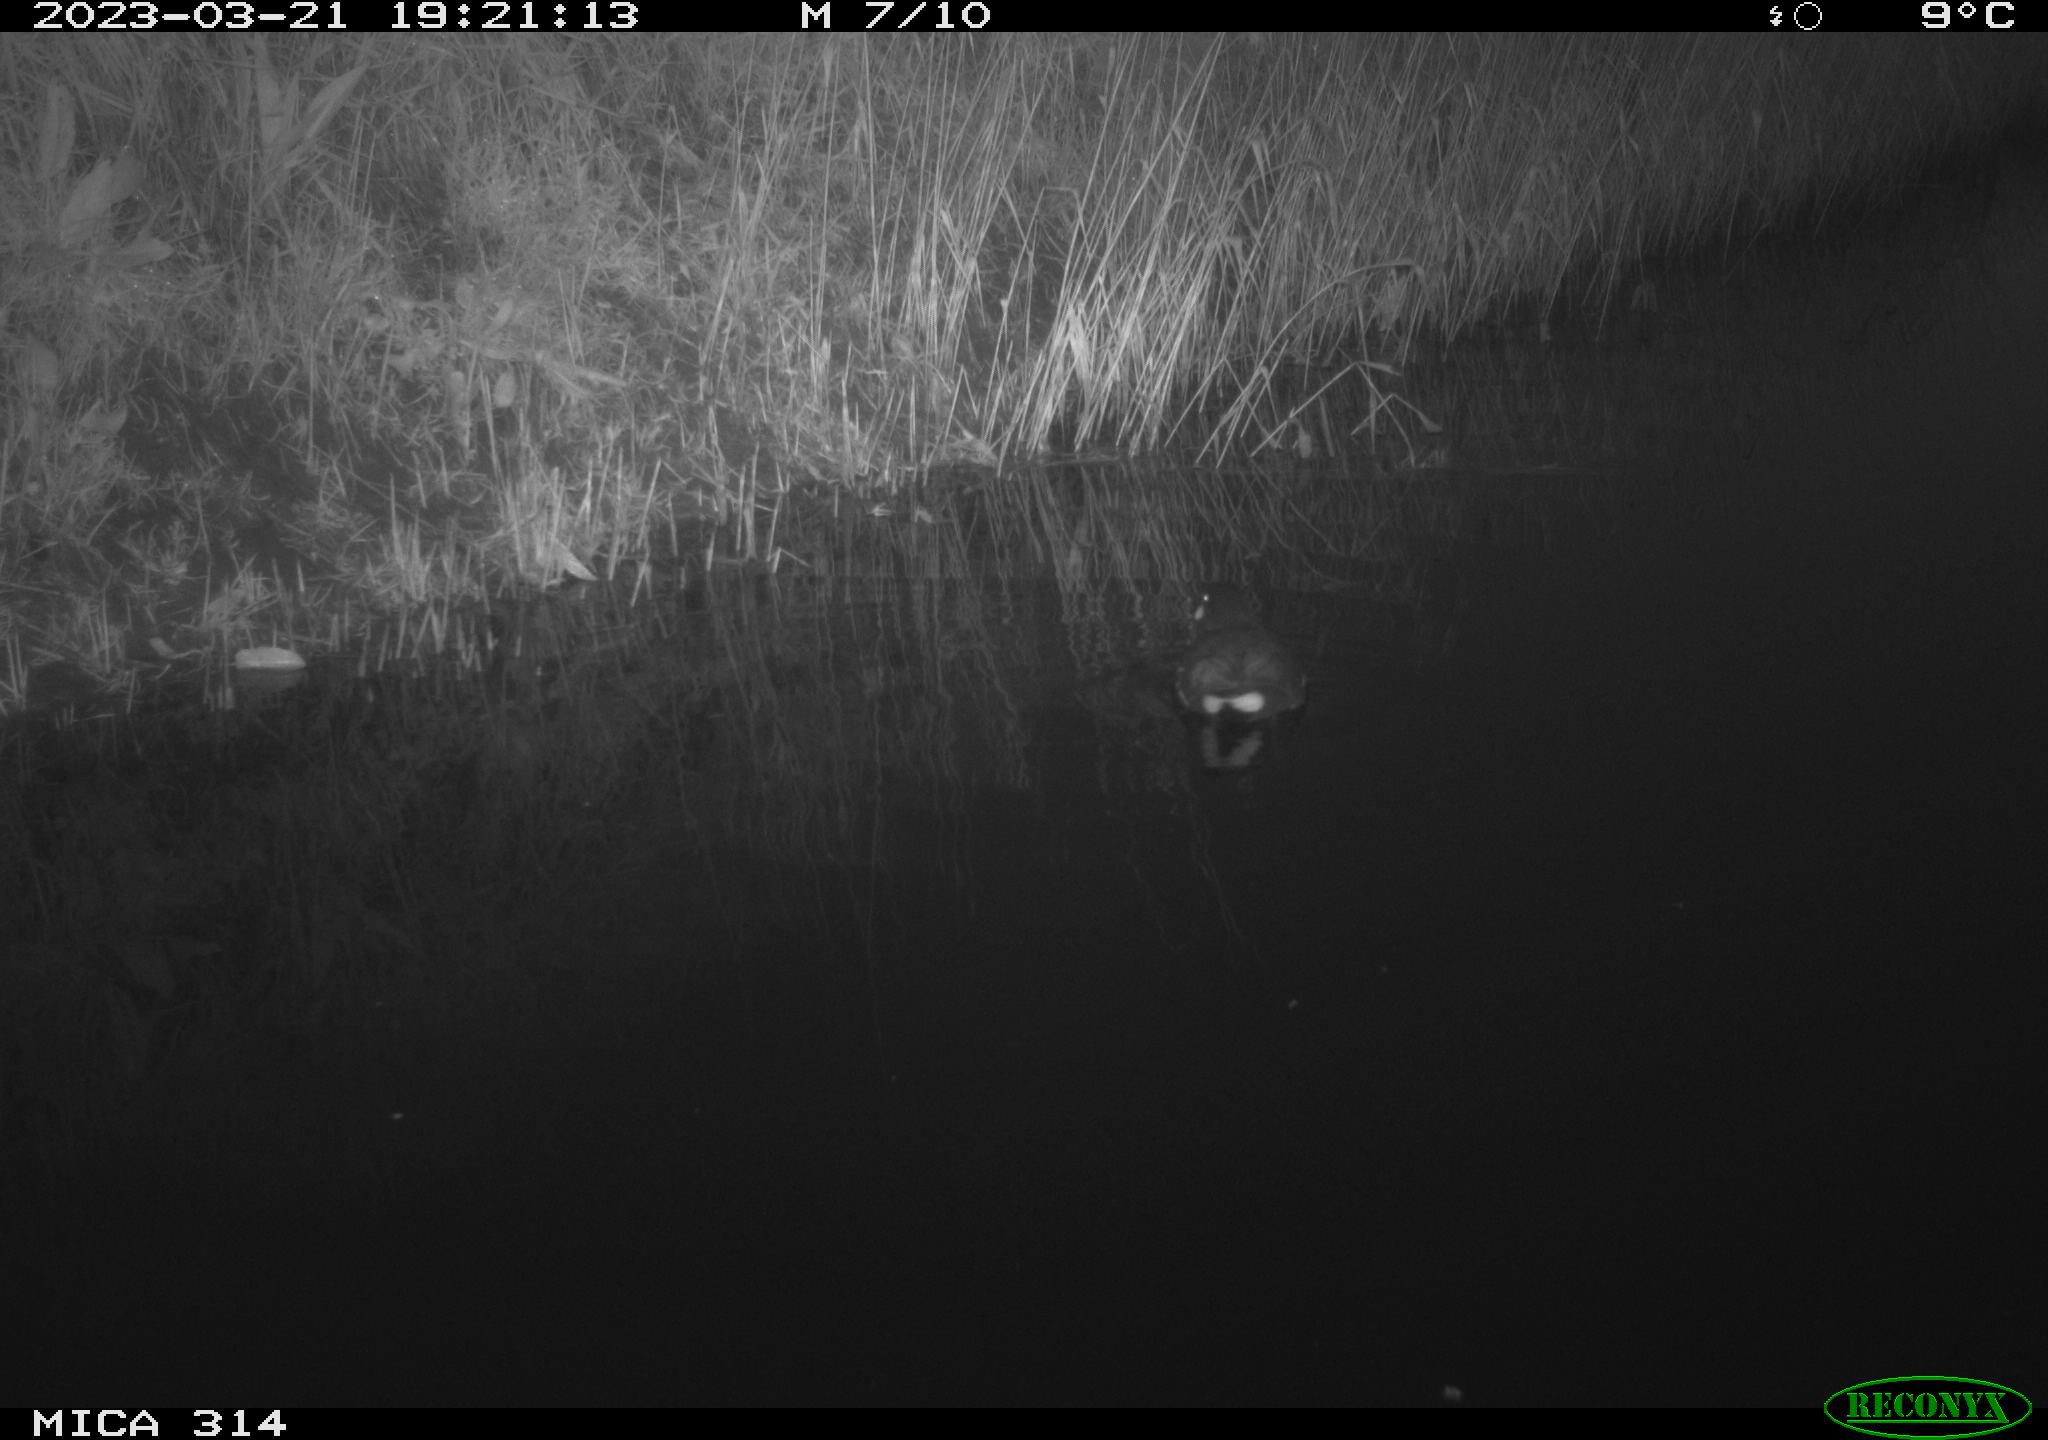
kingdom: Animalia
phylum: Chordata
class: Aves
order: Gruiformes
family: Rallidae
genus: Gallinula
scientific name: Gallinula chloropus
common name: Common moorhen
